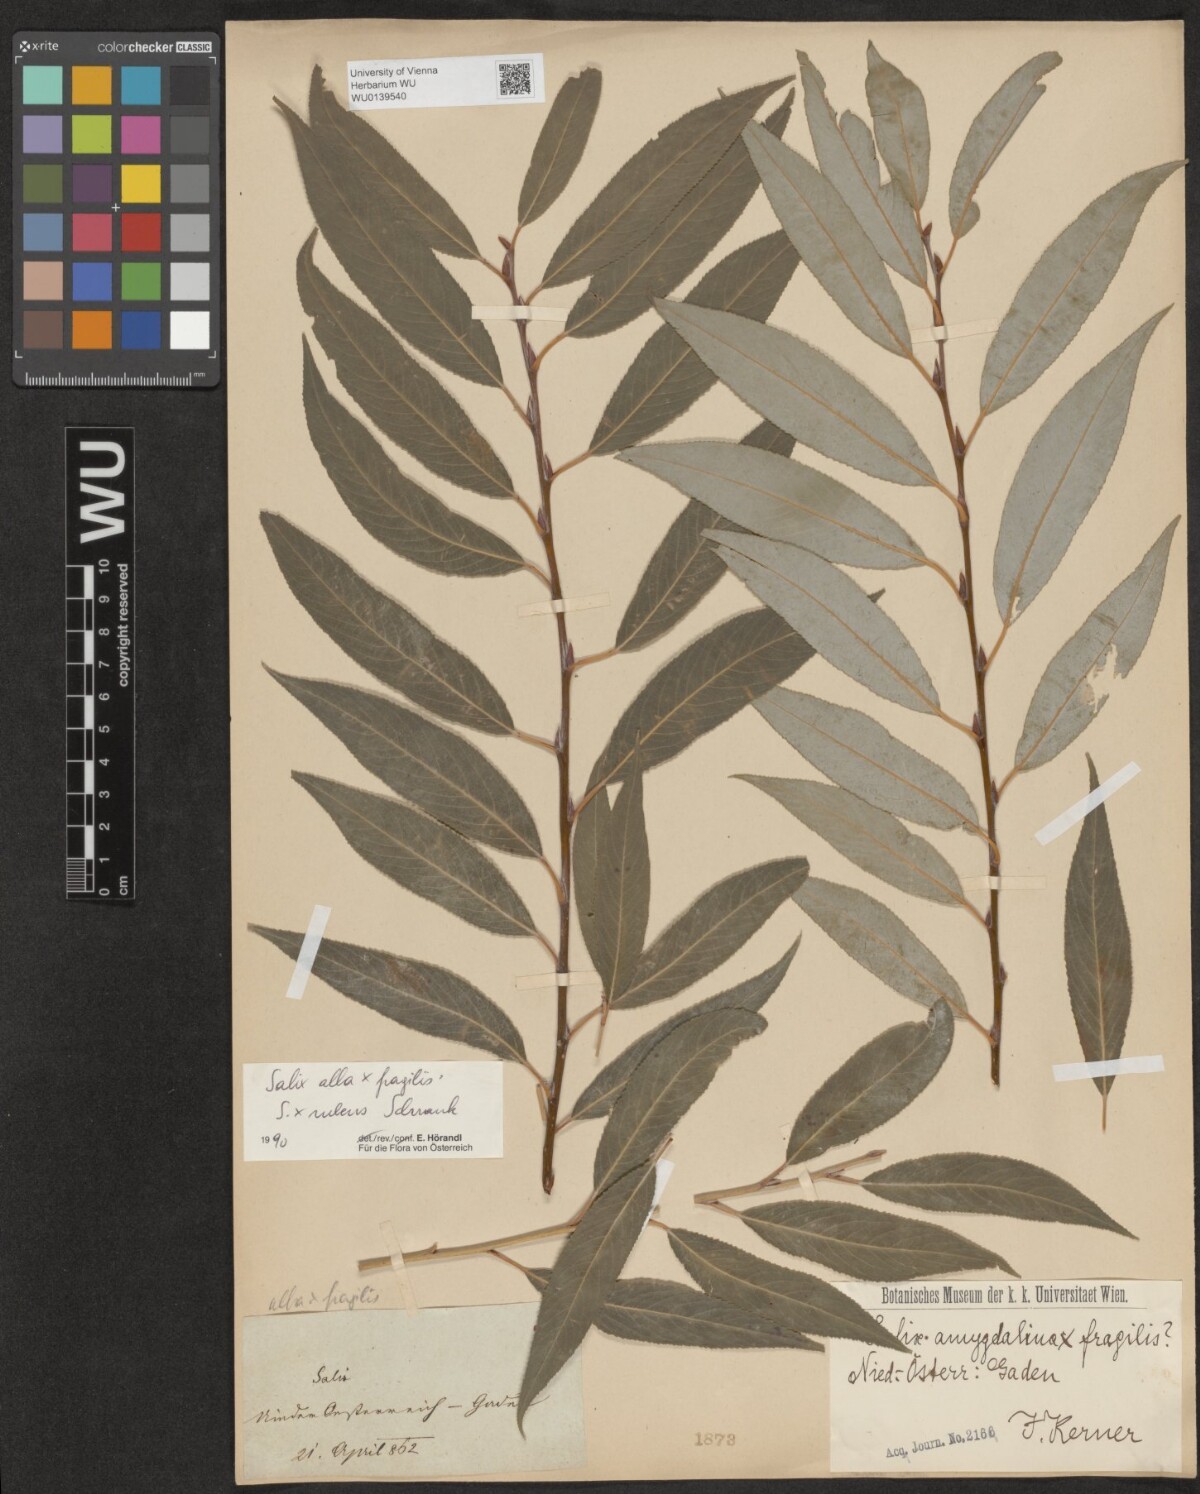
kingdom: Plantae
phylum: Tracheophyta
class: Magnoliopsida
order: Malpighiales
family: Salicaceae
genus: Salix
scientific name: Salix rubens
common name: Hybrid crack willow
